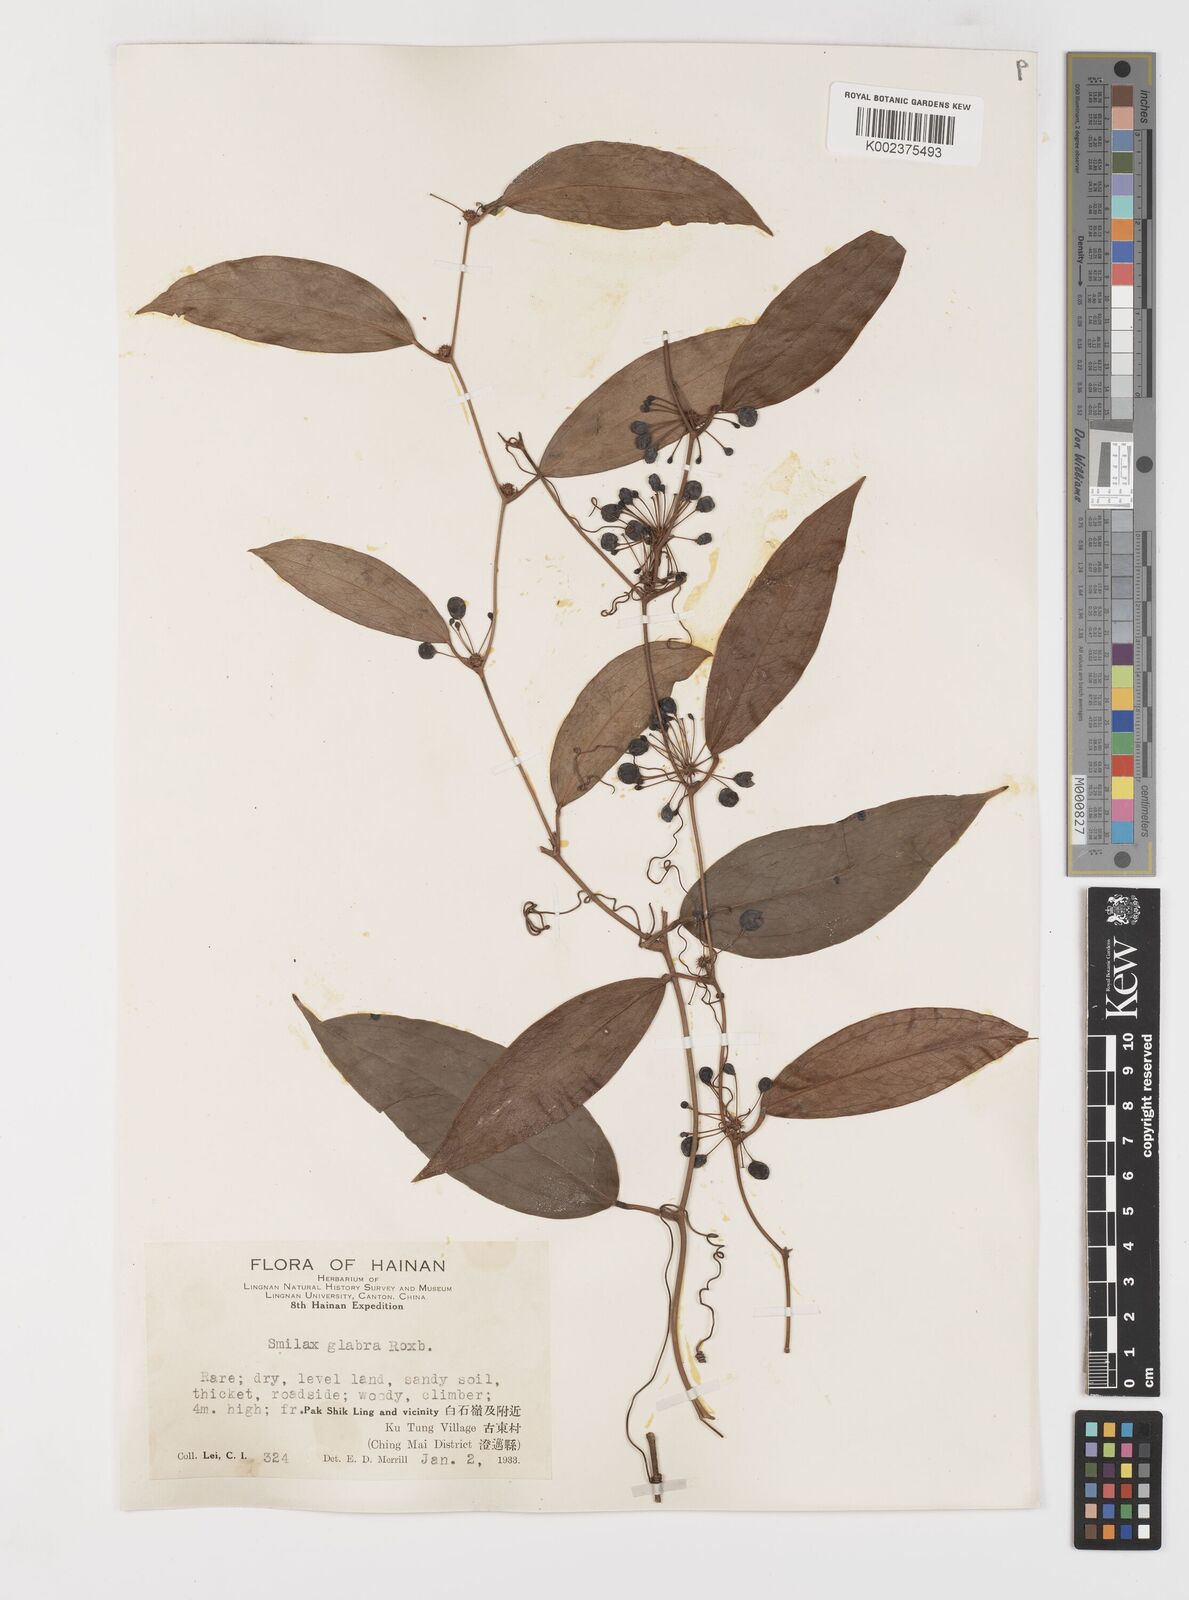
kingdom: Plantae
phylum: Tracheophyta
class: Liliopsida
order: Liliales
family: Smilacaceae
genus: Smilax
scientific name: Smilax glabra
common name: Chinese smilax
